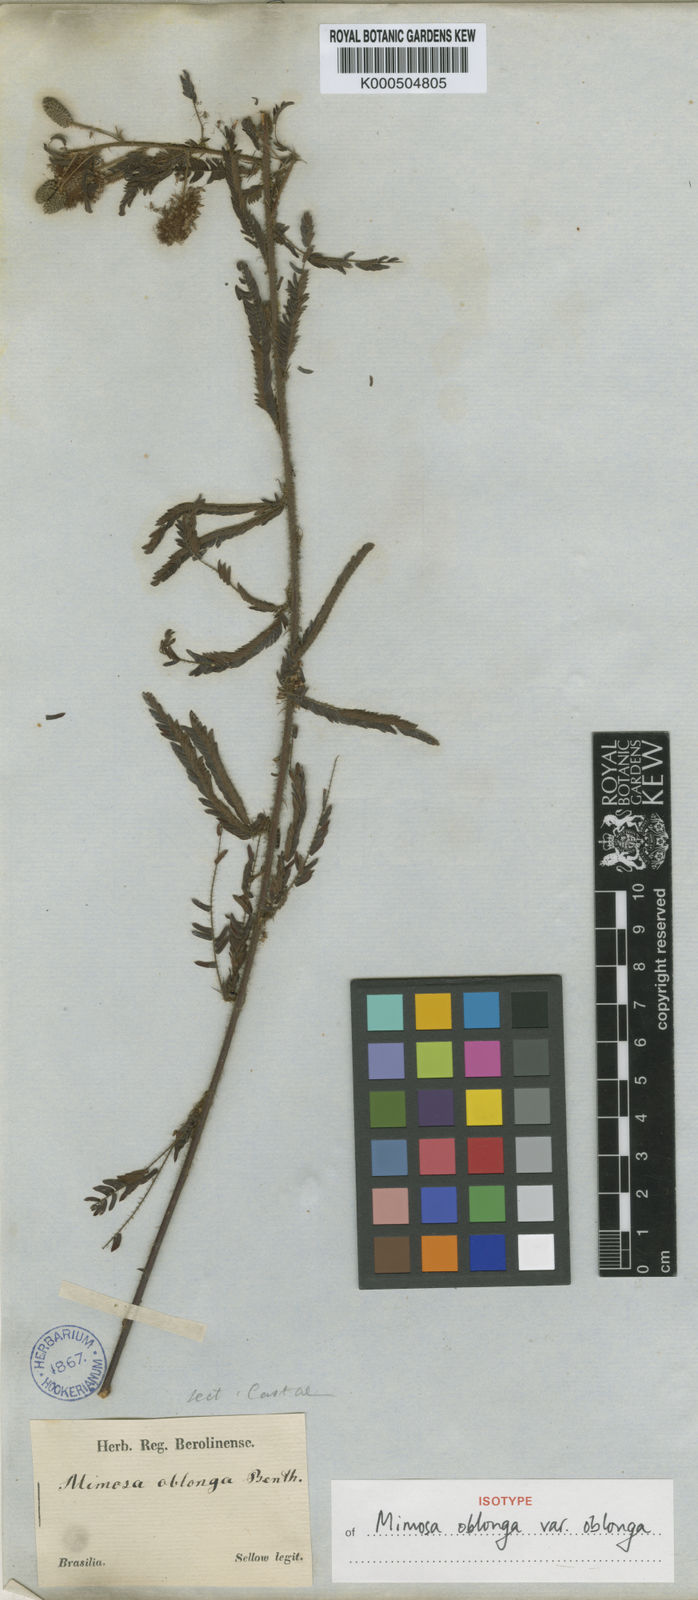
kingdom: Plantae
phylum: Tracheophyta
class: Magnoliopsida
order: Fabales
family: Fabaceae
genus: Mimosa
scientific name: Mimosa oblonga
